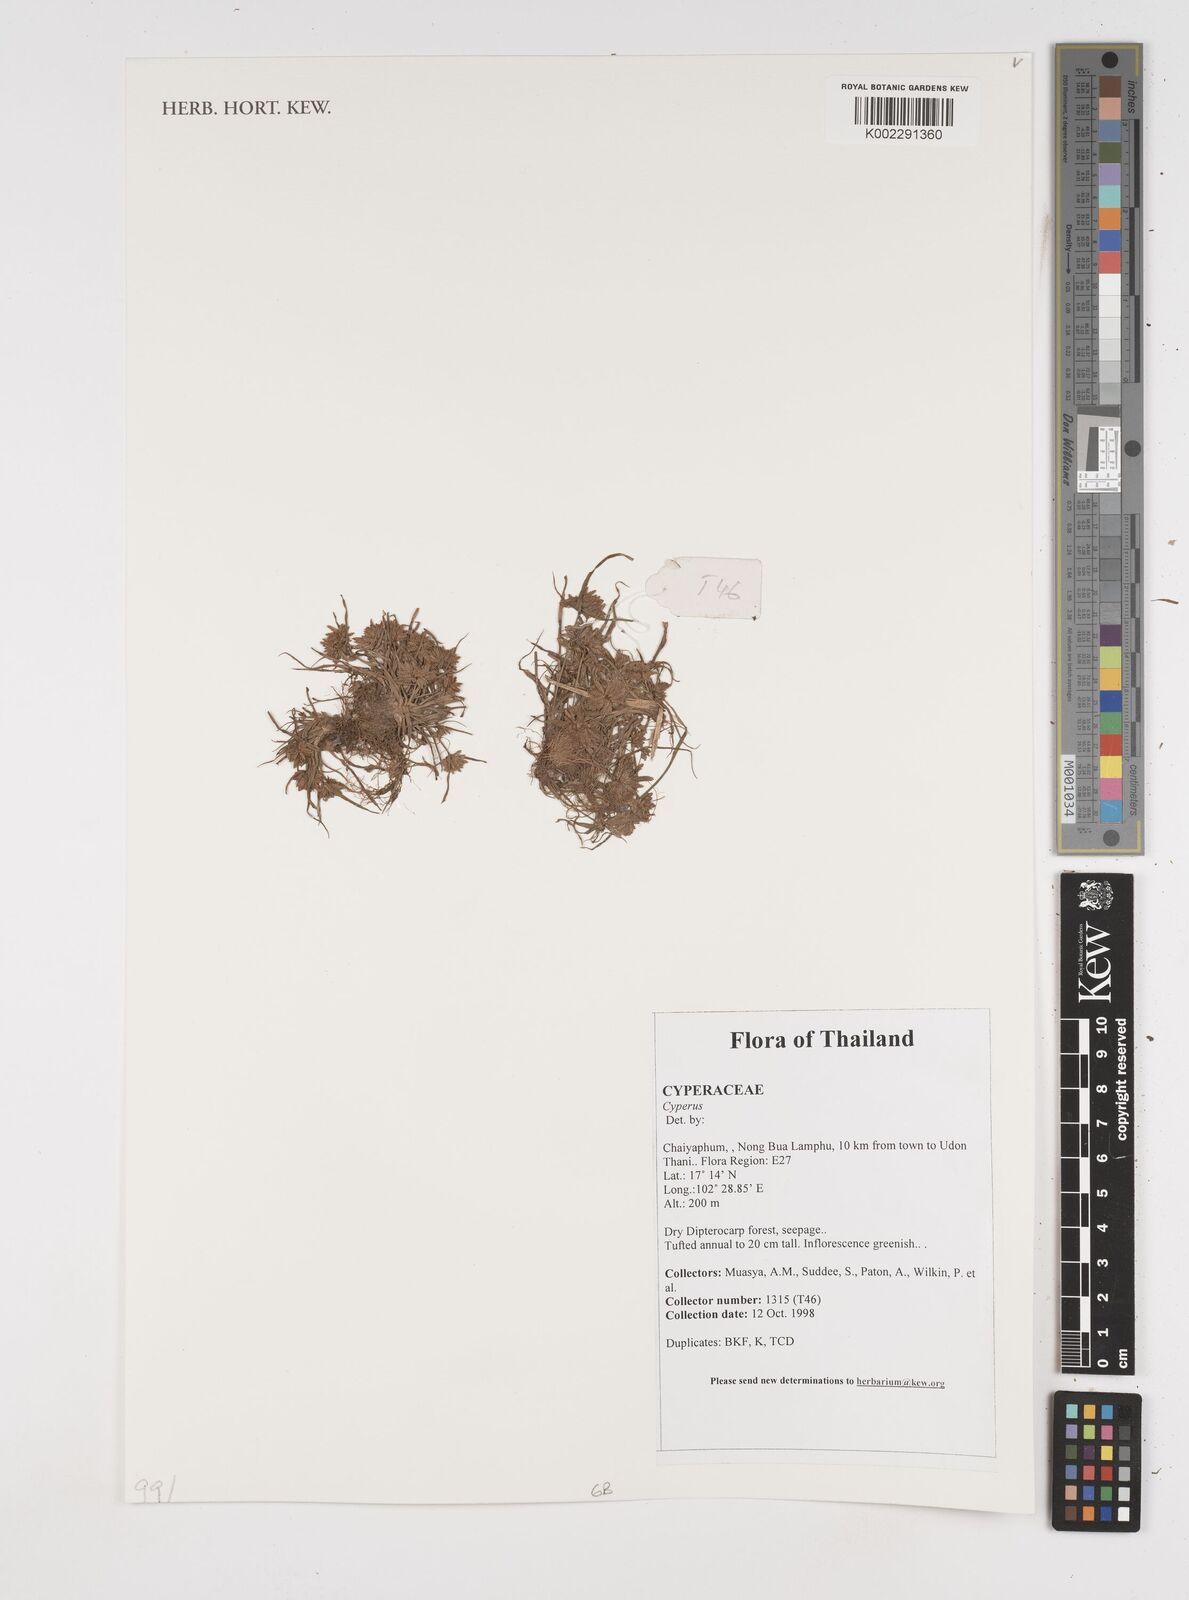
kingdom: Plantae
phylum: Tracheophyta
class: Liliopsida
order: Poales
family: Cyperaceae
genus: Cyperus
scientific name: Cyperus
